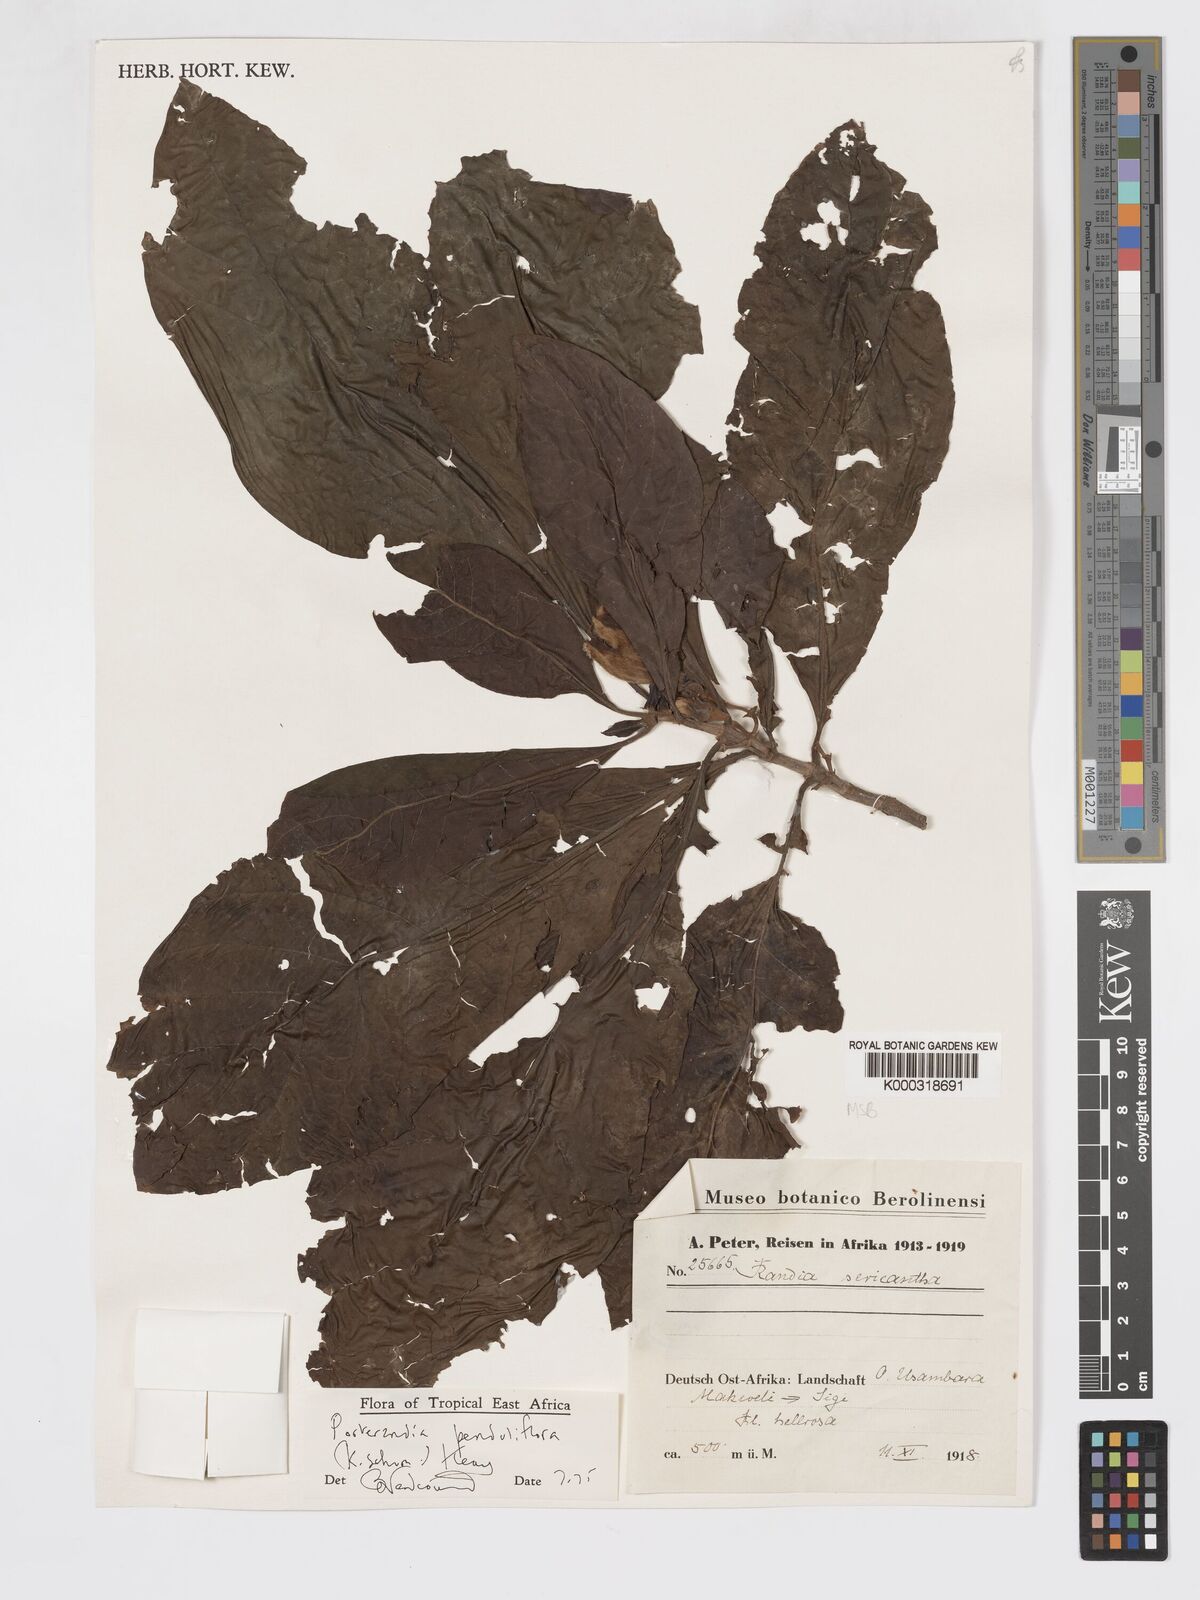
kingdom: Plantae
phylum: Tracheophyta
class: Magnoliopsida
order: Gentianales
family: Rubiaceae
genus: Aoranthe
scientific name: Aoranthe penduliflora
